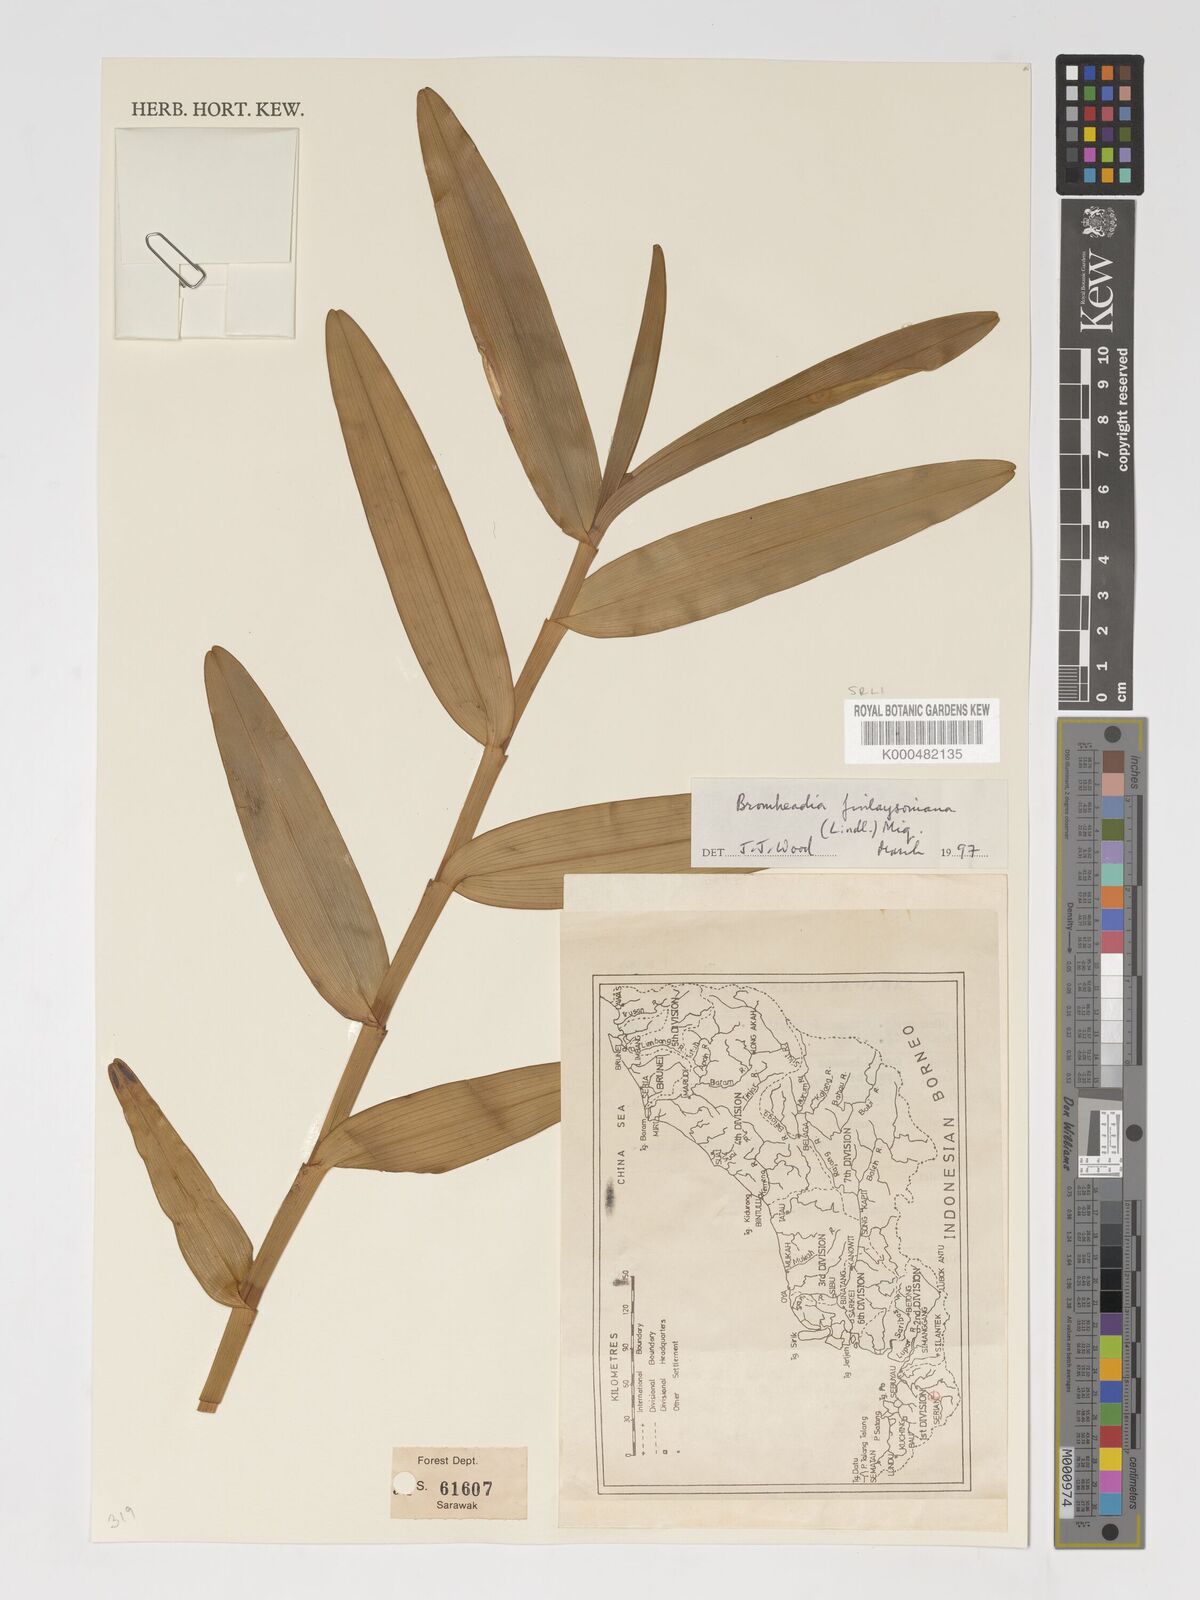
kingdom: Plantae
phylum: Tracheophyta
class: Liliopsida
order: Asparagales
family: Orchidaceae
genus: Bromheadia
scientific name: Bromheadia finlaysoniana
